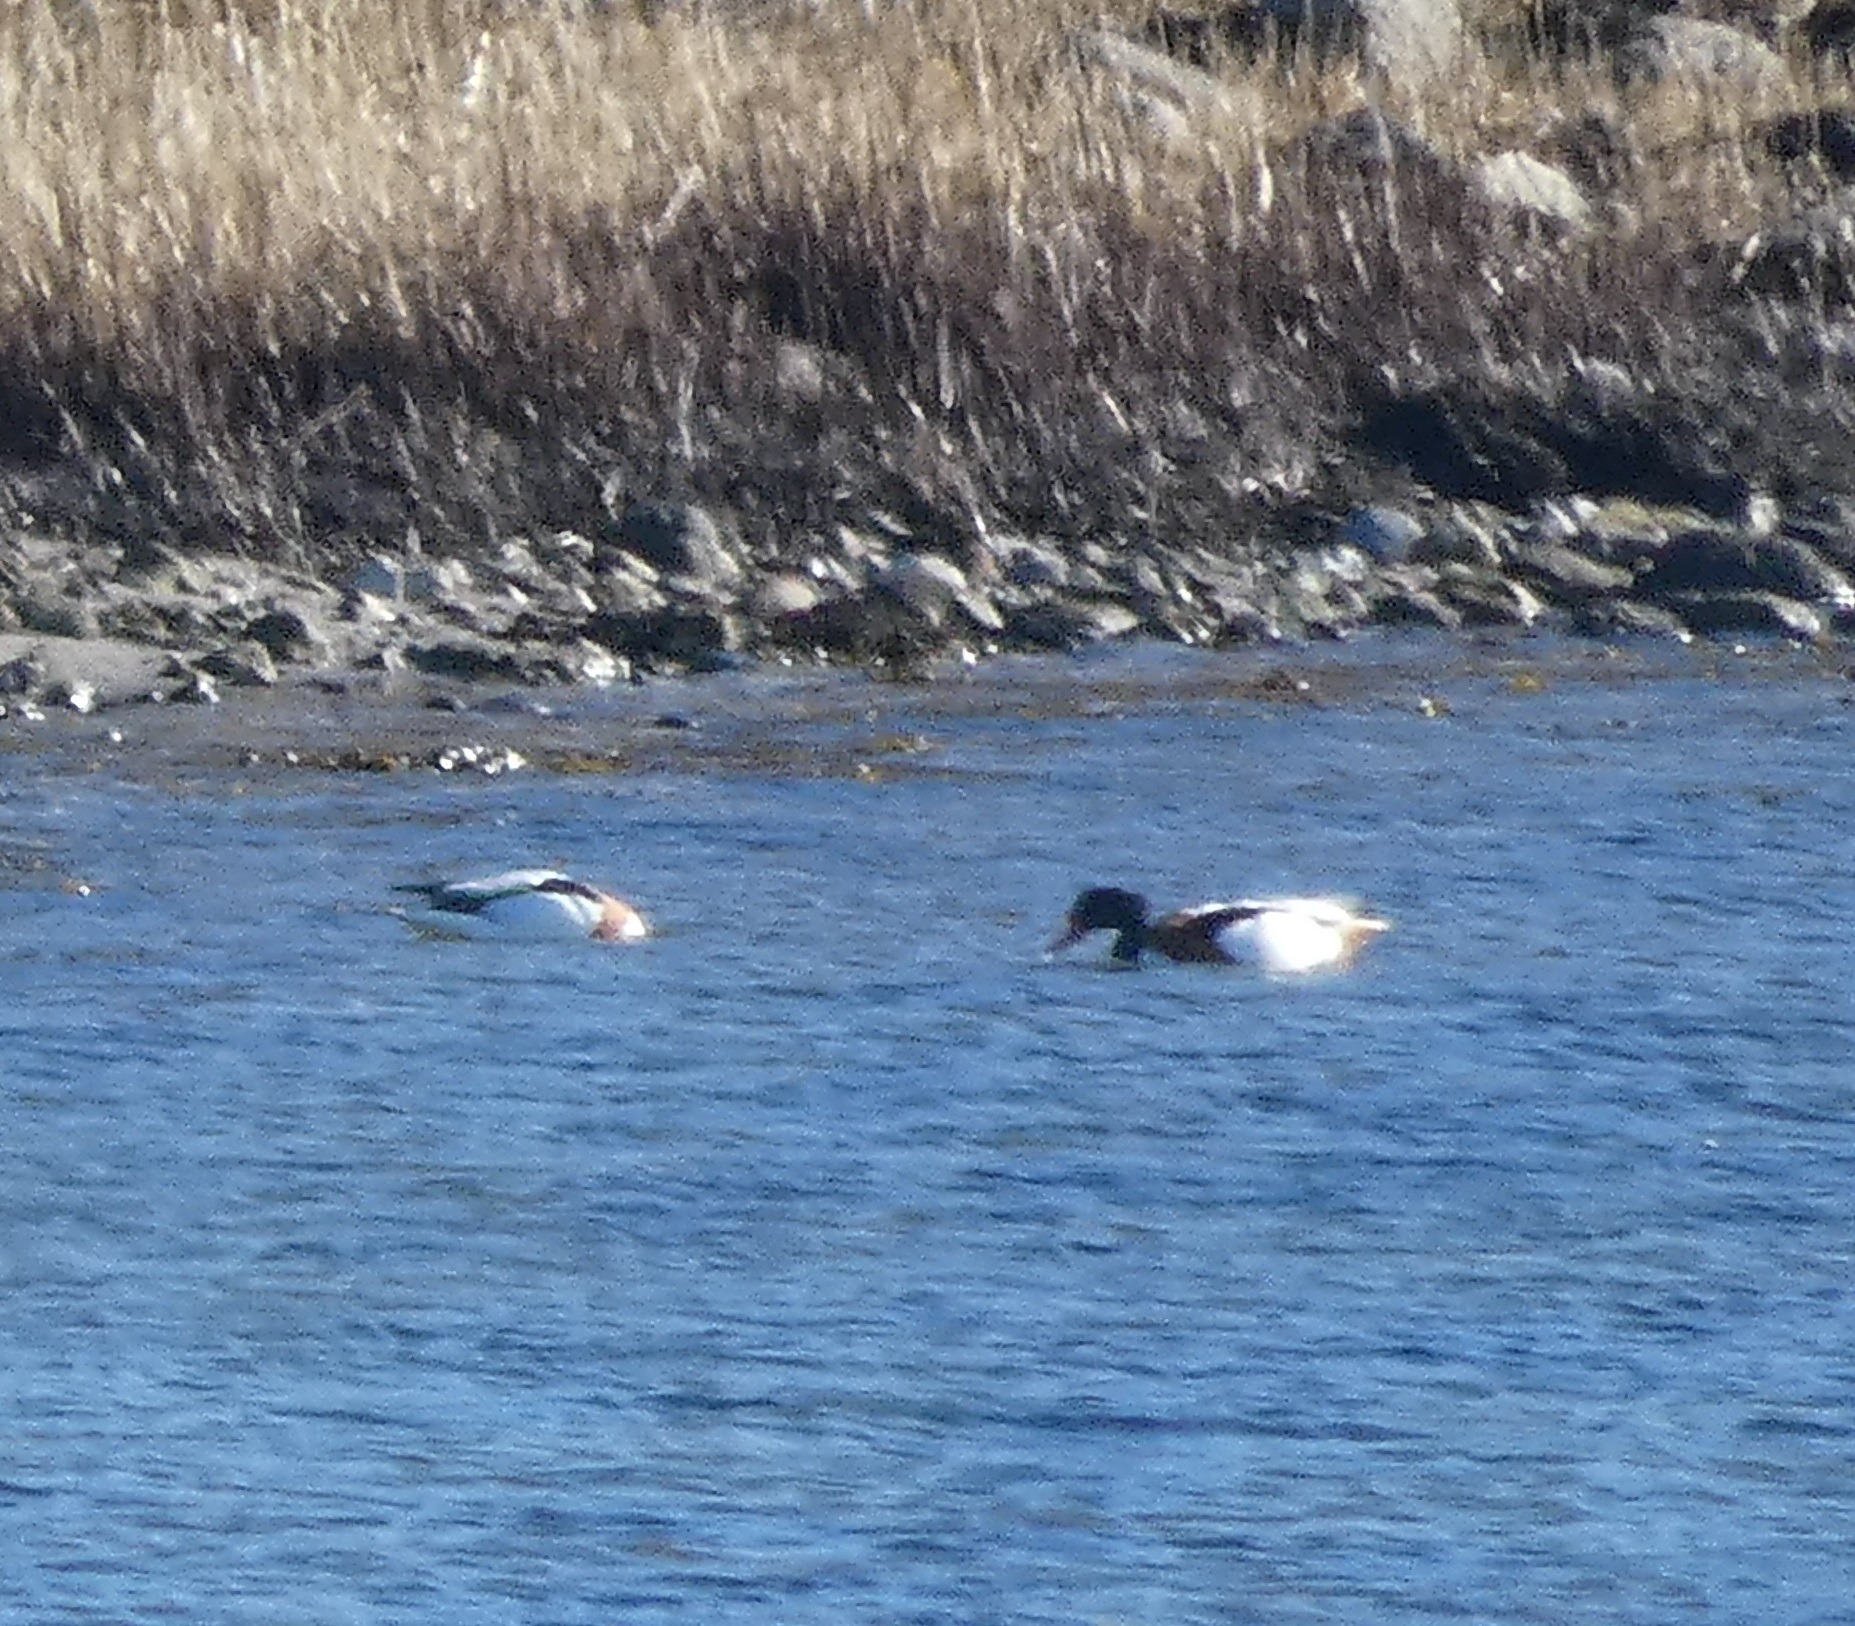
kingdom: Animalia
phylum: Chordata
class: Aves
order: Anseriformes
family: Anatidae
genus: Tadorna
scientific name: Tadorna tadorna
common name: Gravand
